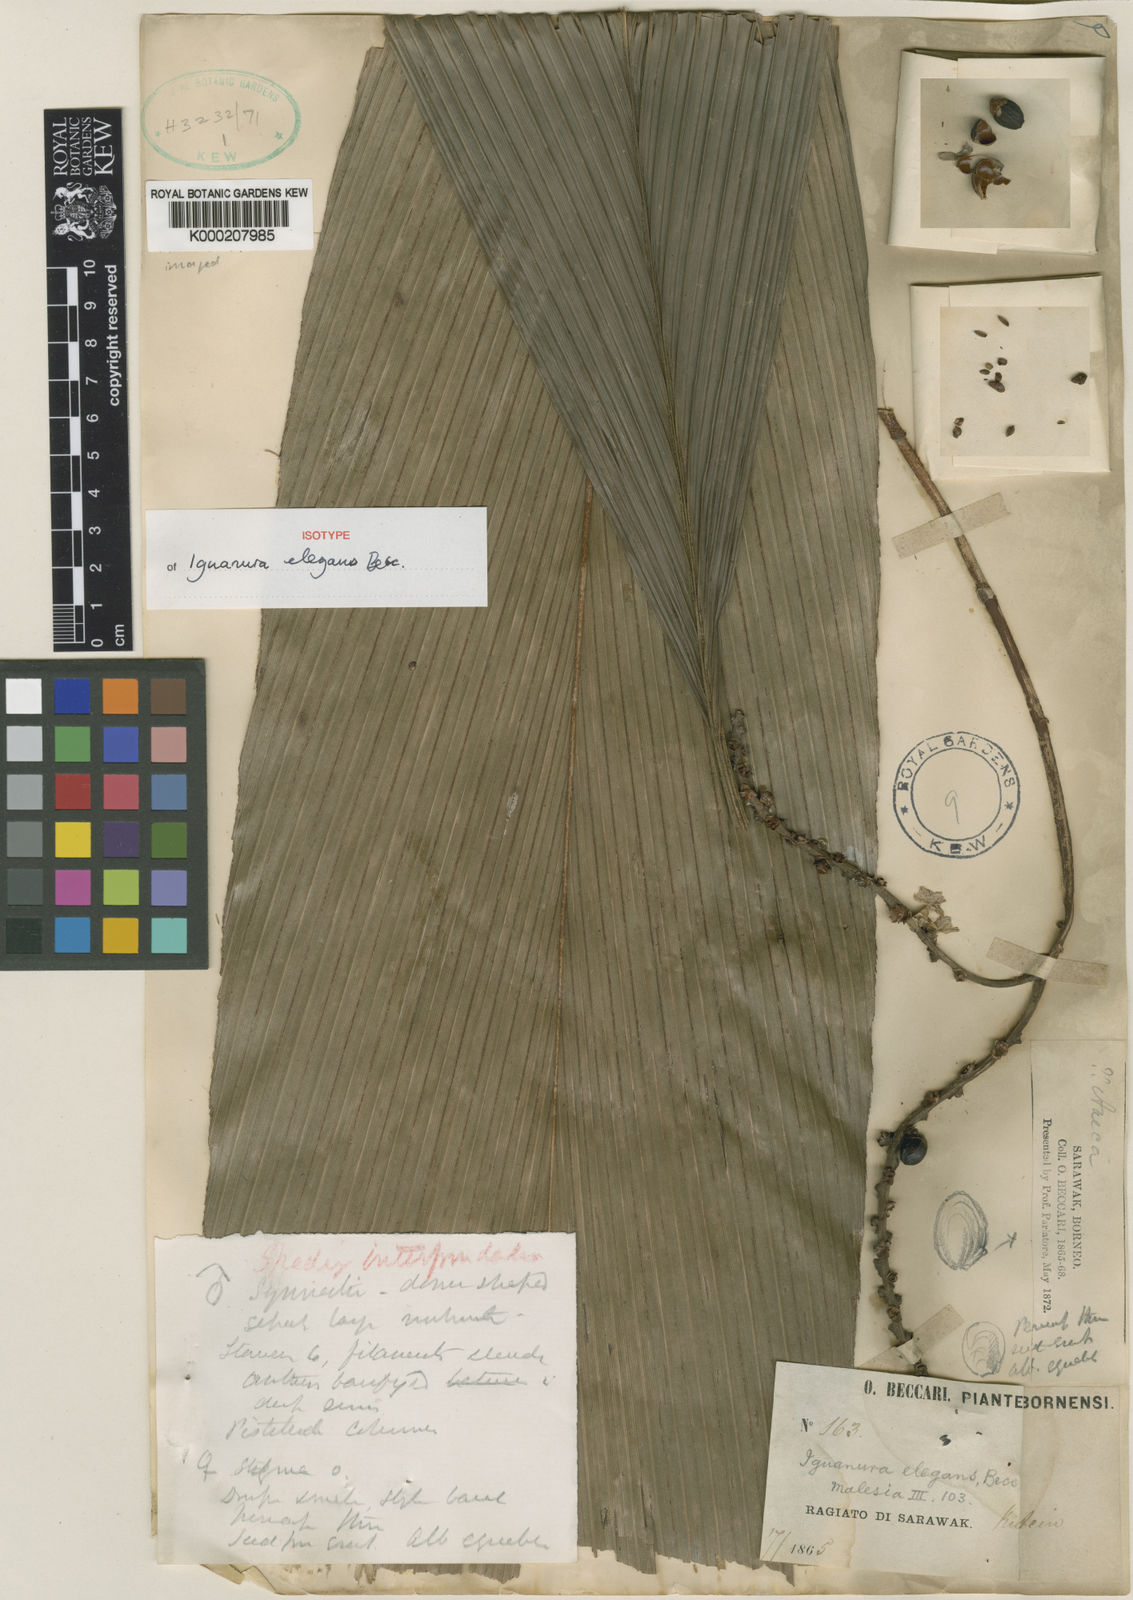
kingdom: Plantae
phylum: Tracheophyta
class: Liliopsida
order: Arecales
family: Arecaceae
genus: Iguanura
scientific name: Iguanura elegans
